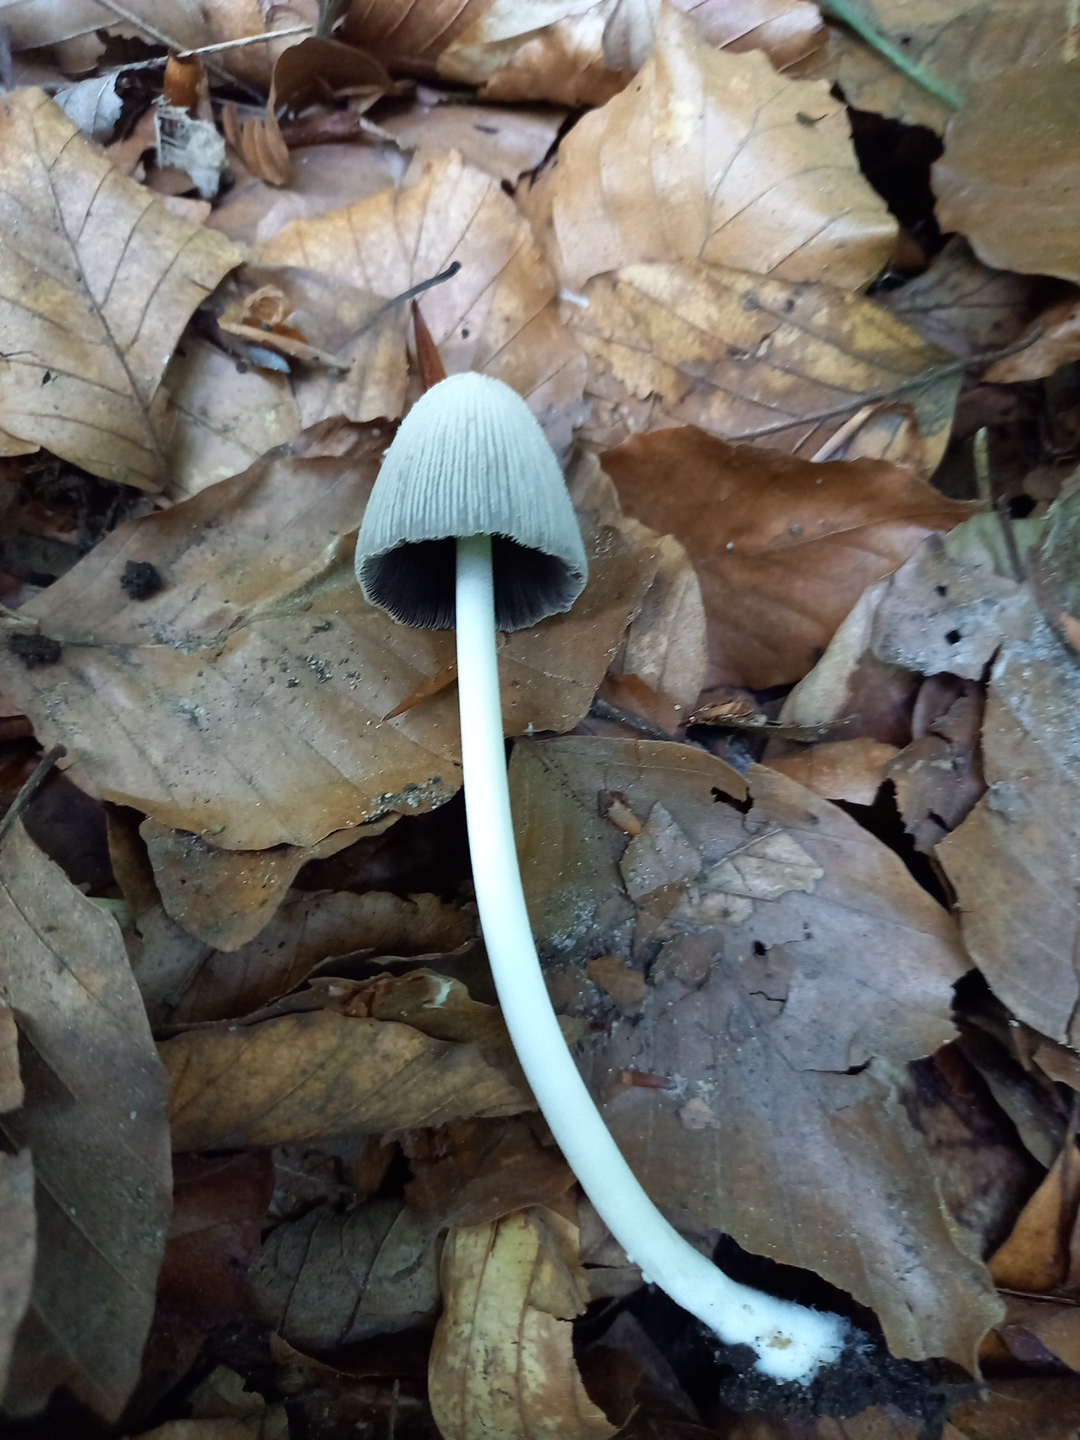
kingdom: Fungi
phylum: Basidiomycota
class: Agaricomycetes
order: Agaricales
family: Psathyrellaceae
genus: Coprinellus
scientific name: Coprinellus
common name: blækhat
